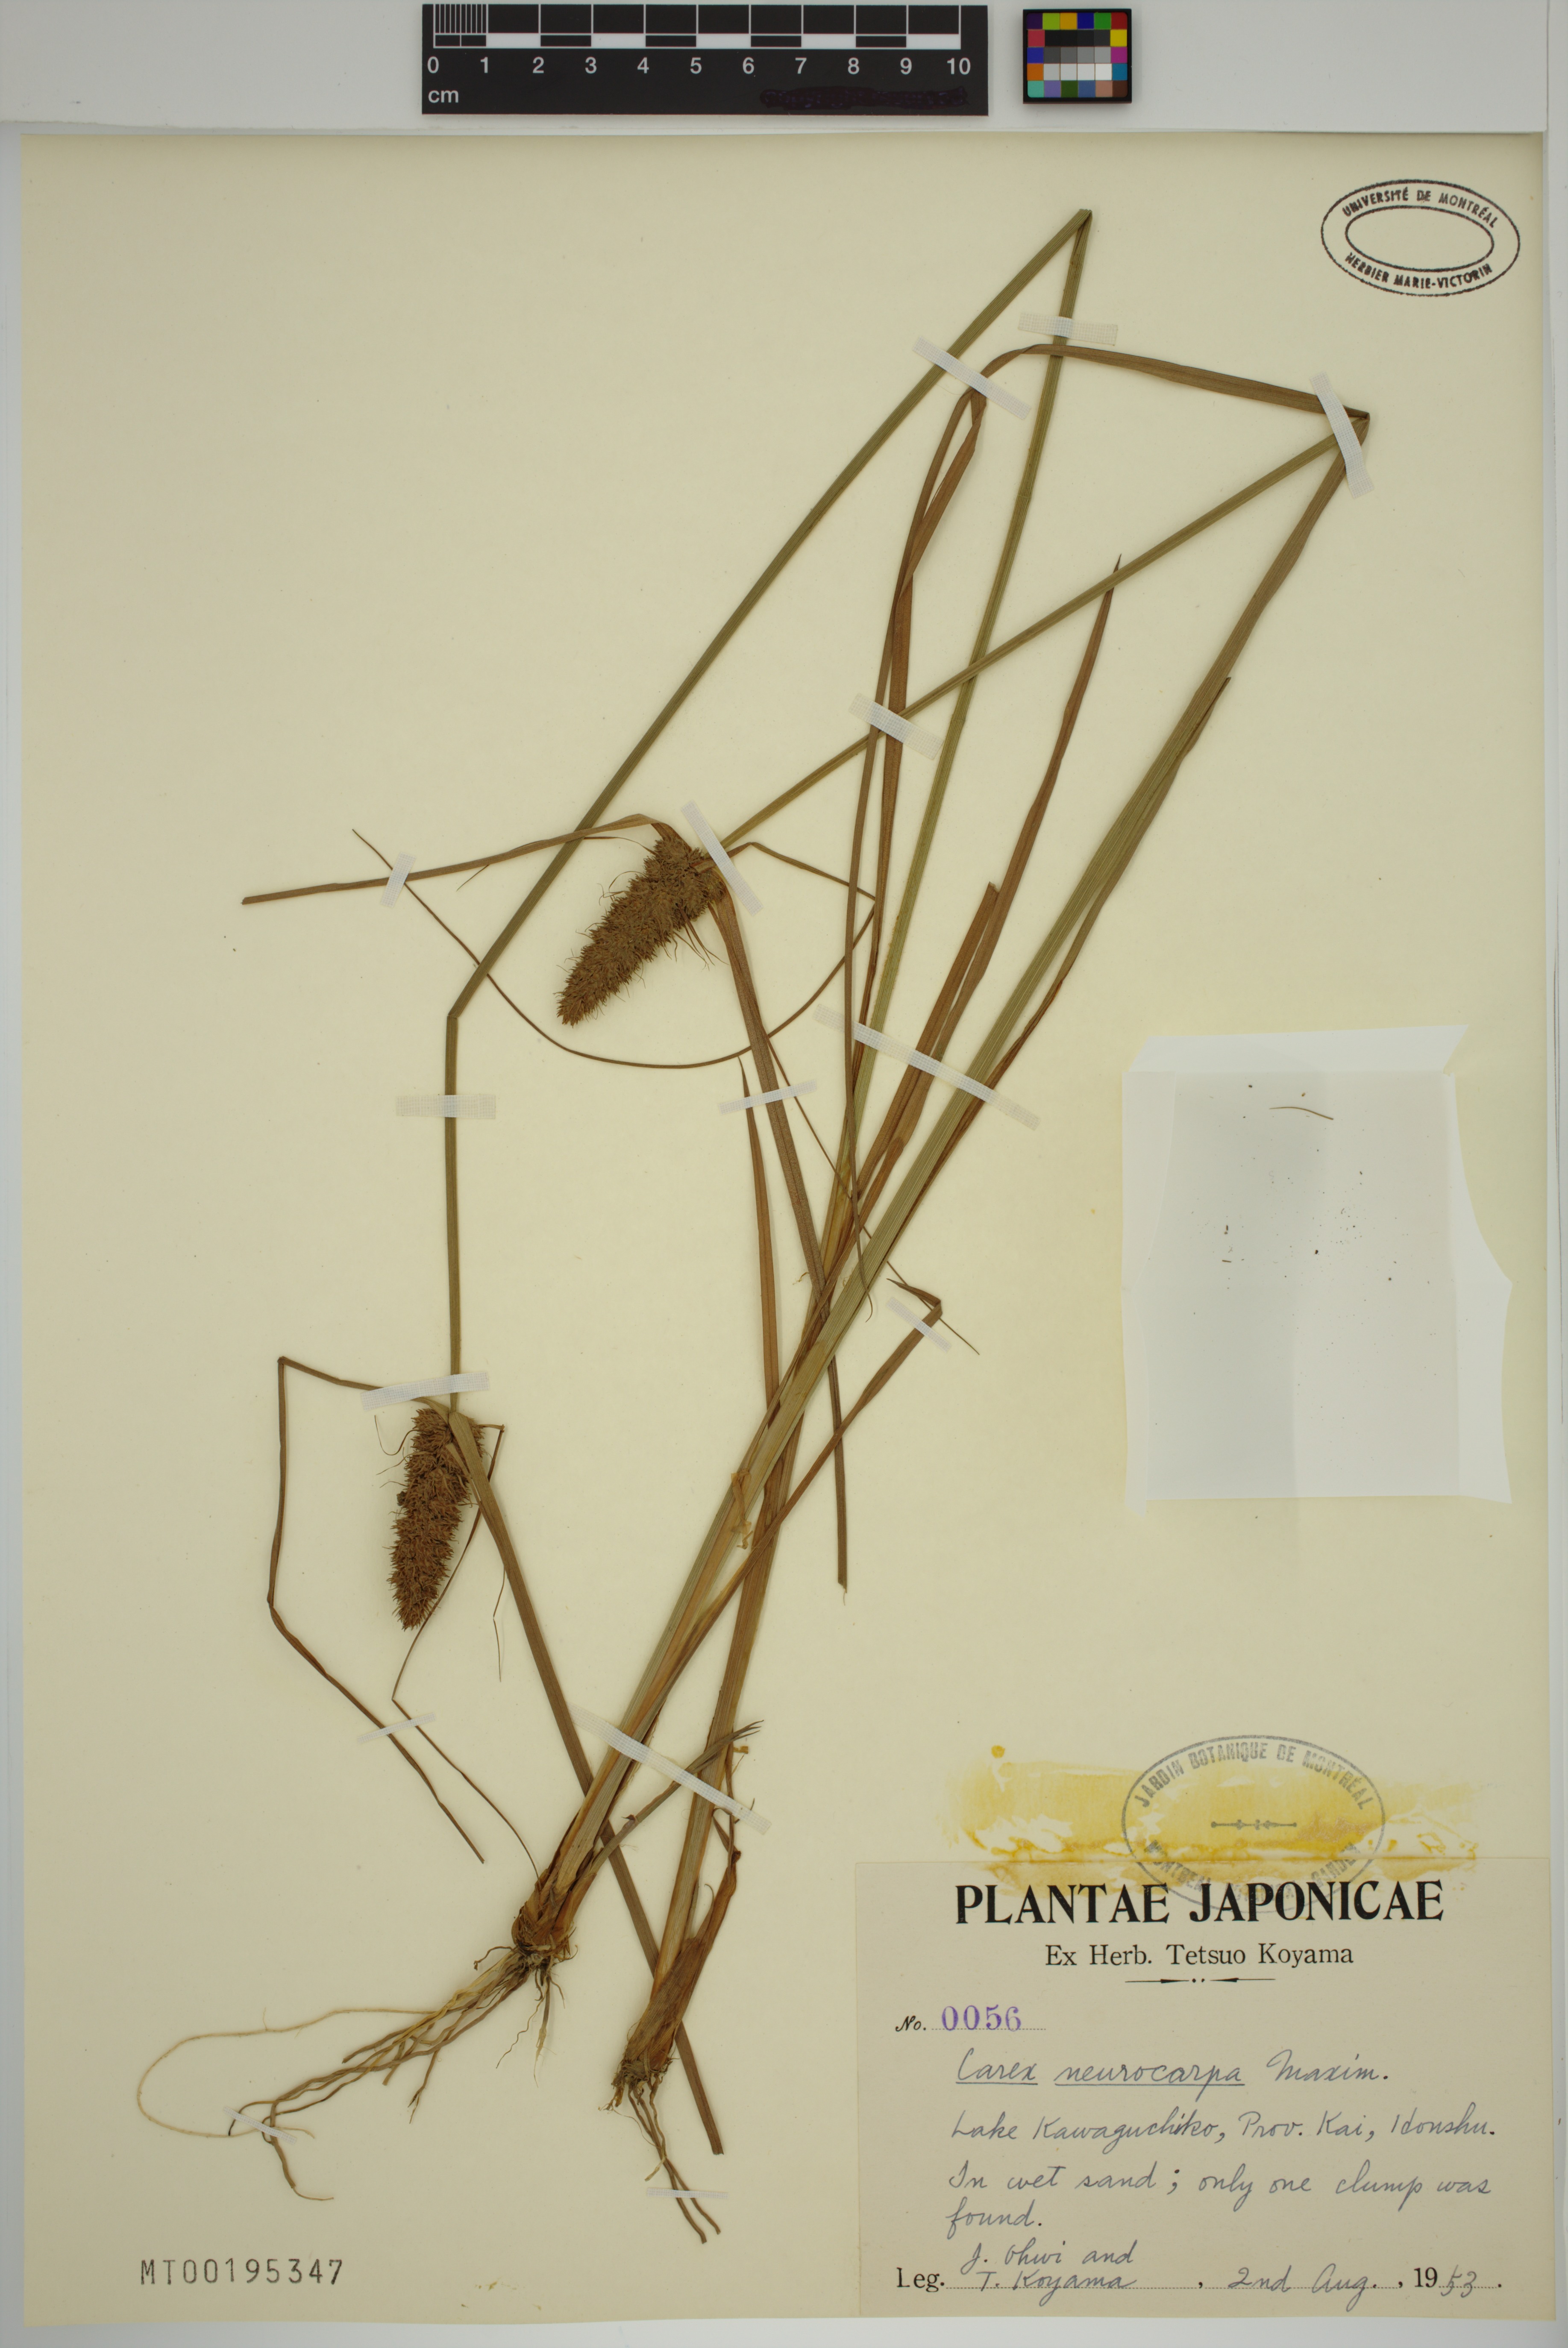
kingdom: Plantae
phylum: Tracheophyta
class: Liliopsida
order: Poales
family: Cyperaceae
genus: Carex
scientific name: Carex neurocarpa
